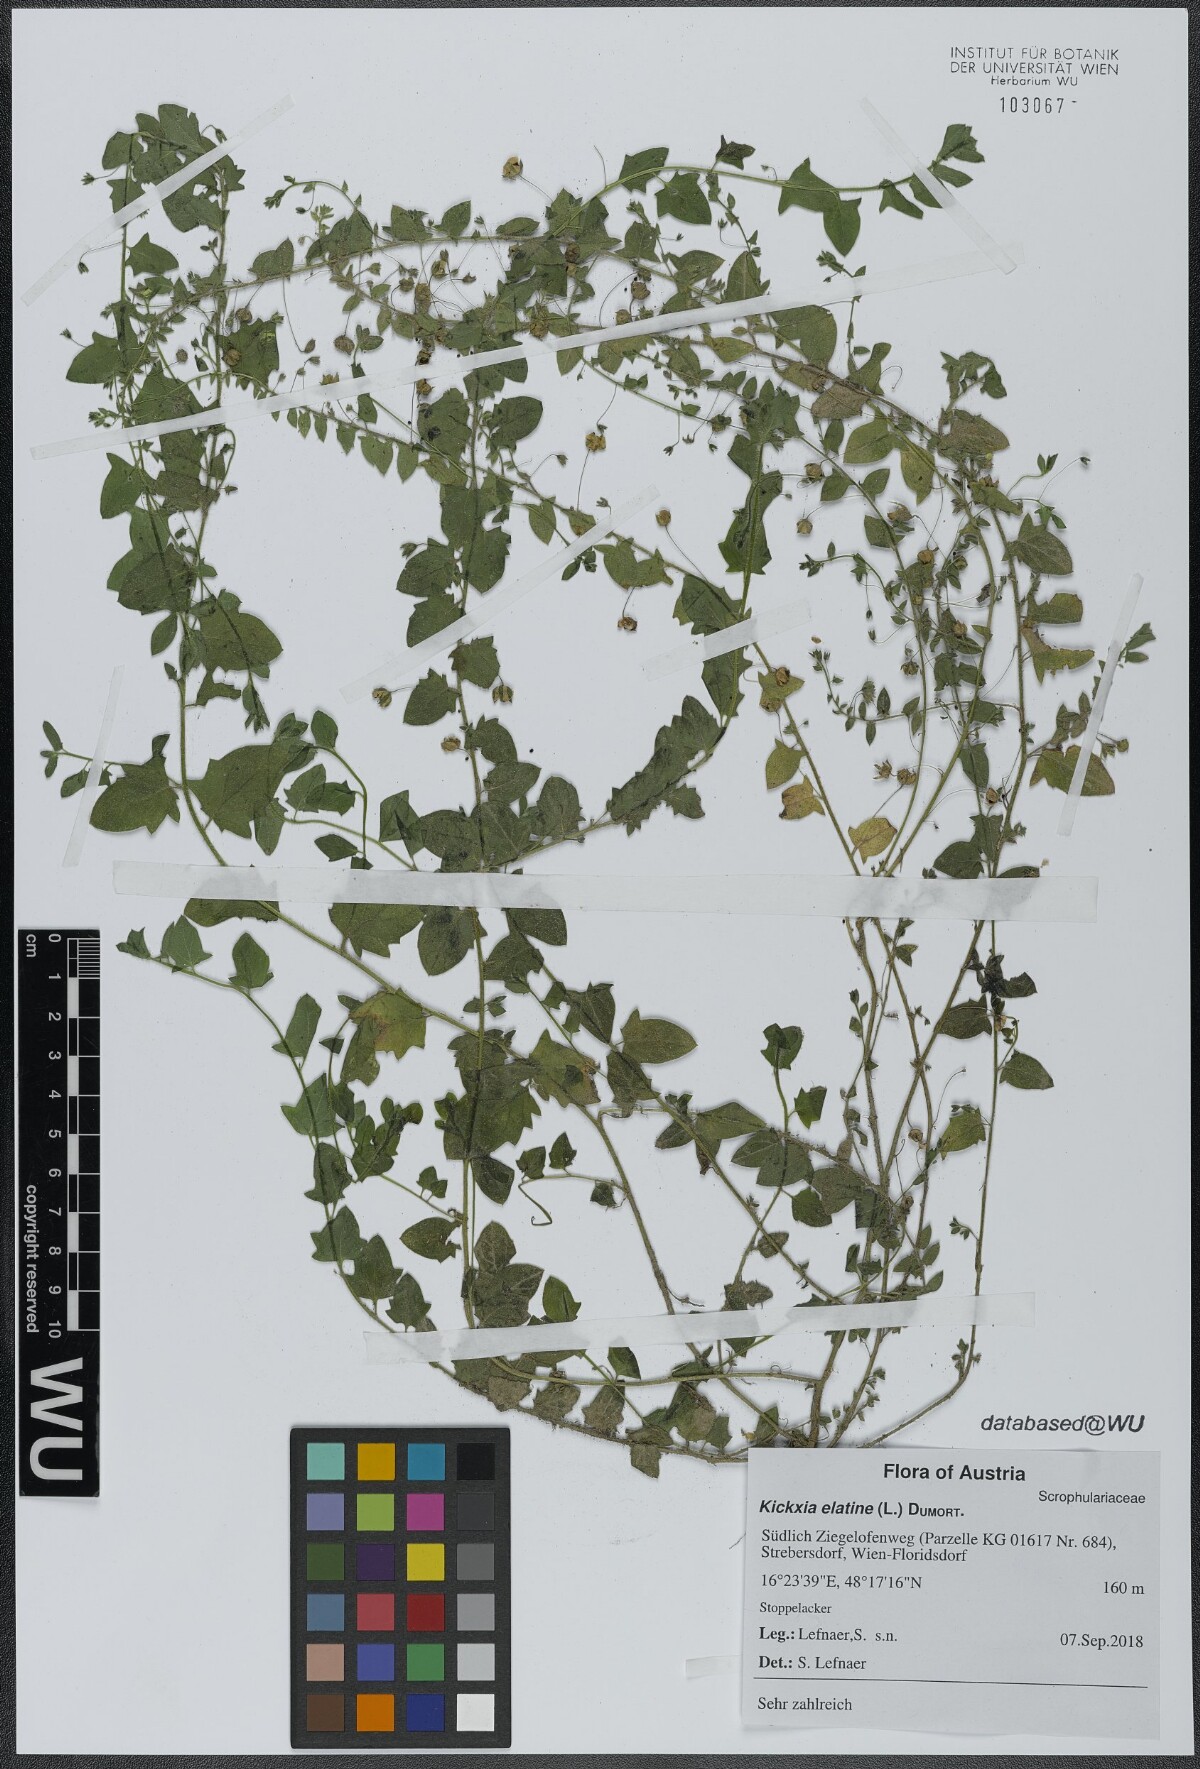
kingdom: Plantae
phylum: Tracheophyta
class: Magnoliopsida
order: Lamiales
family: Plantaginaceae
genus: Kickxia
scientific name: Kickxia elatine
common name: Sharp-leaved fluellen
